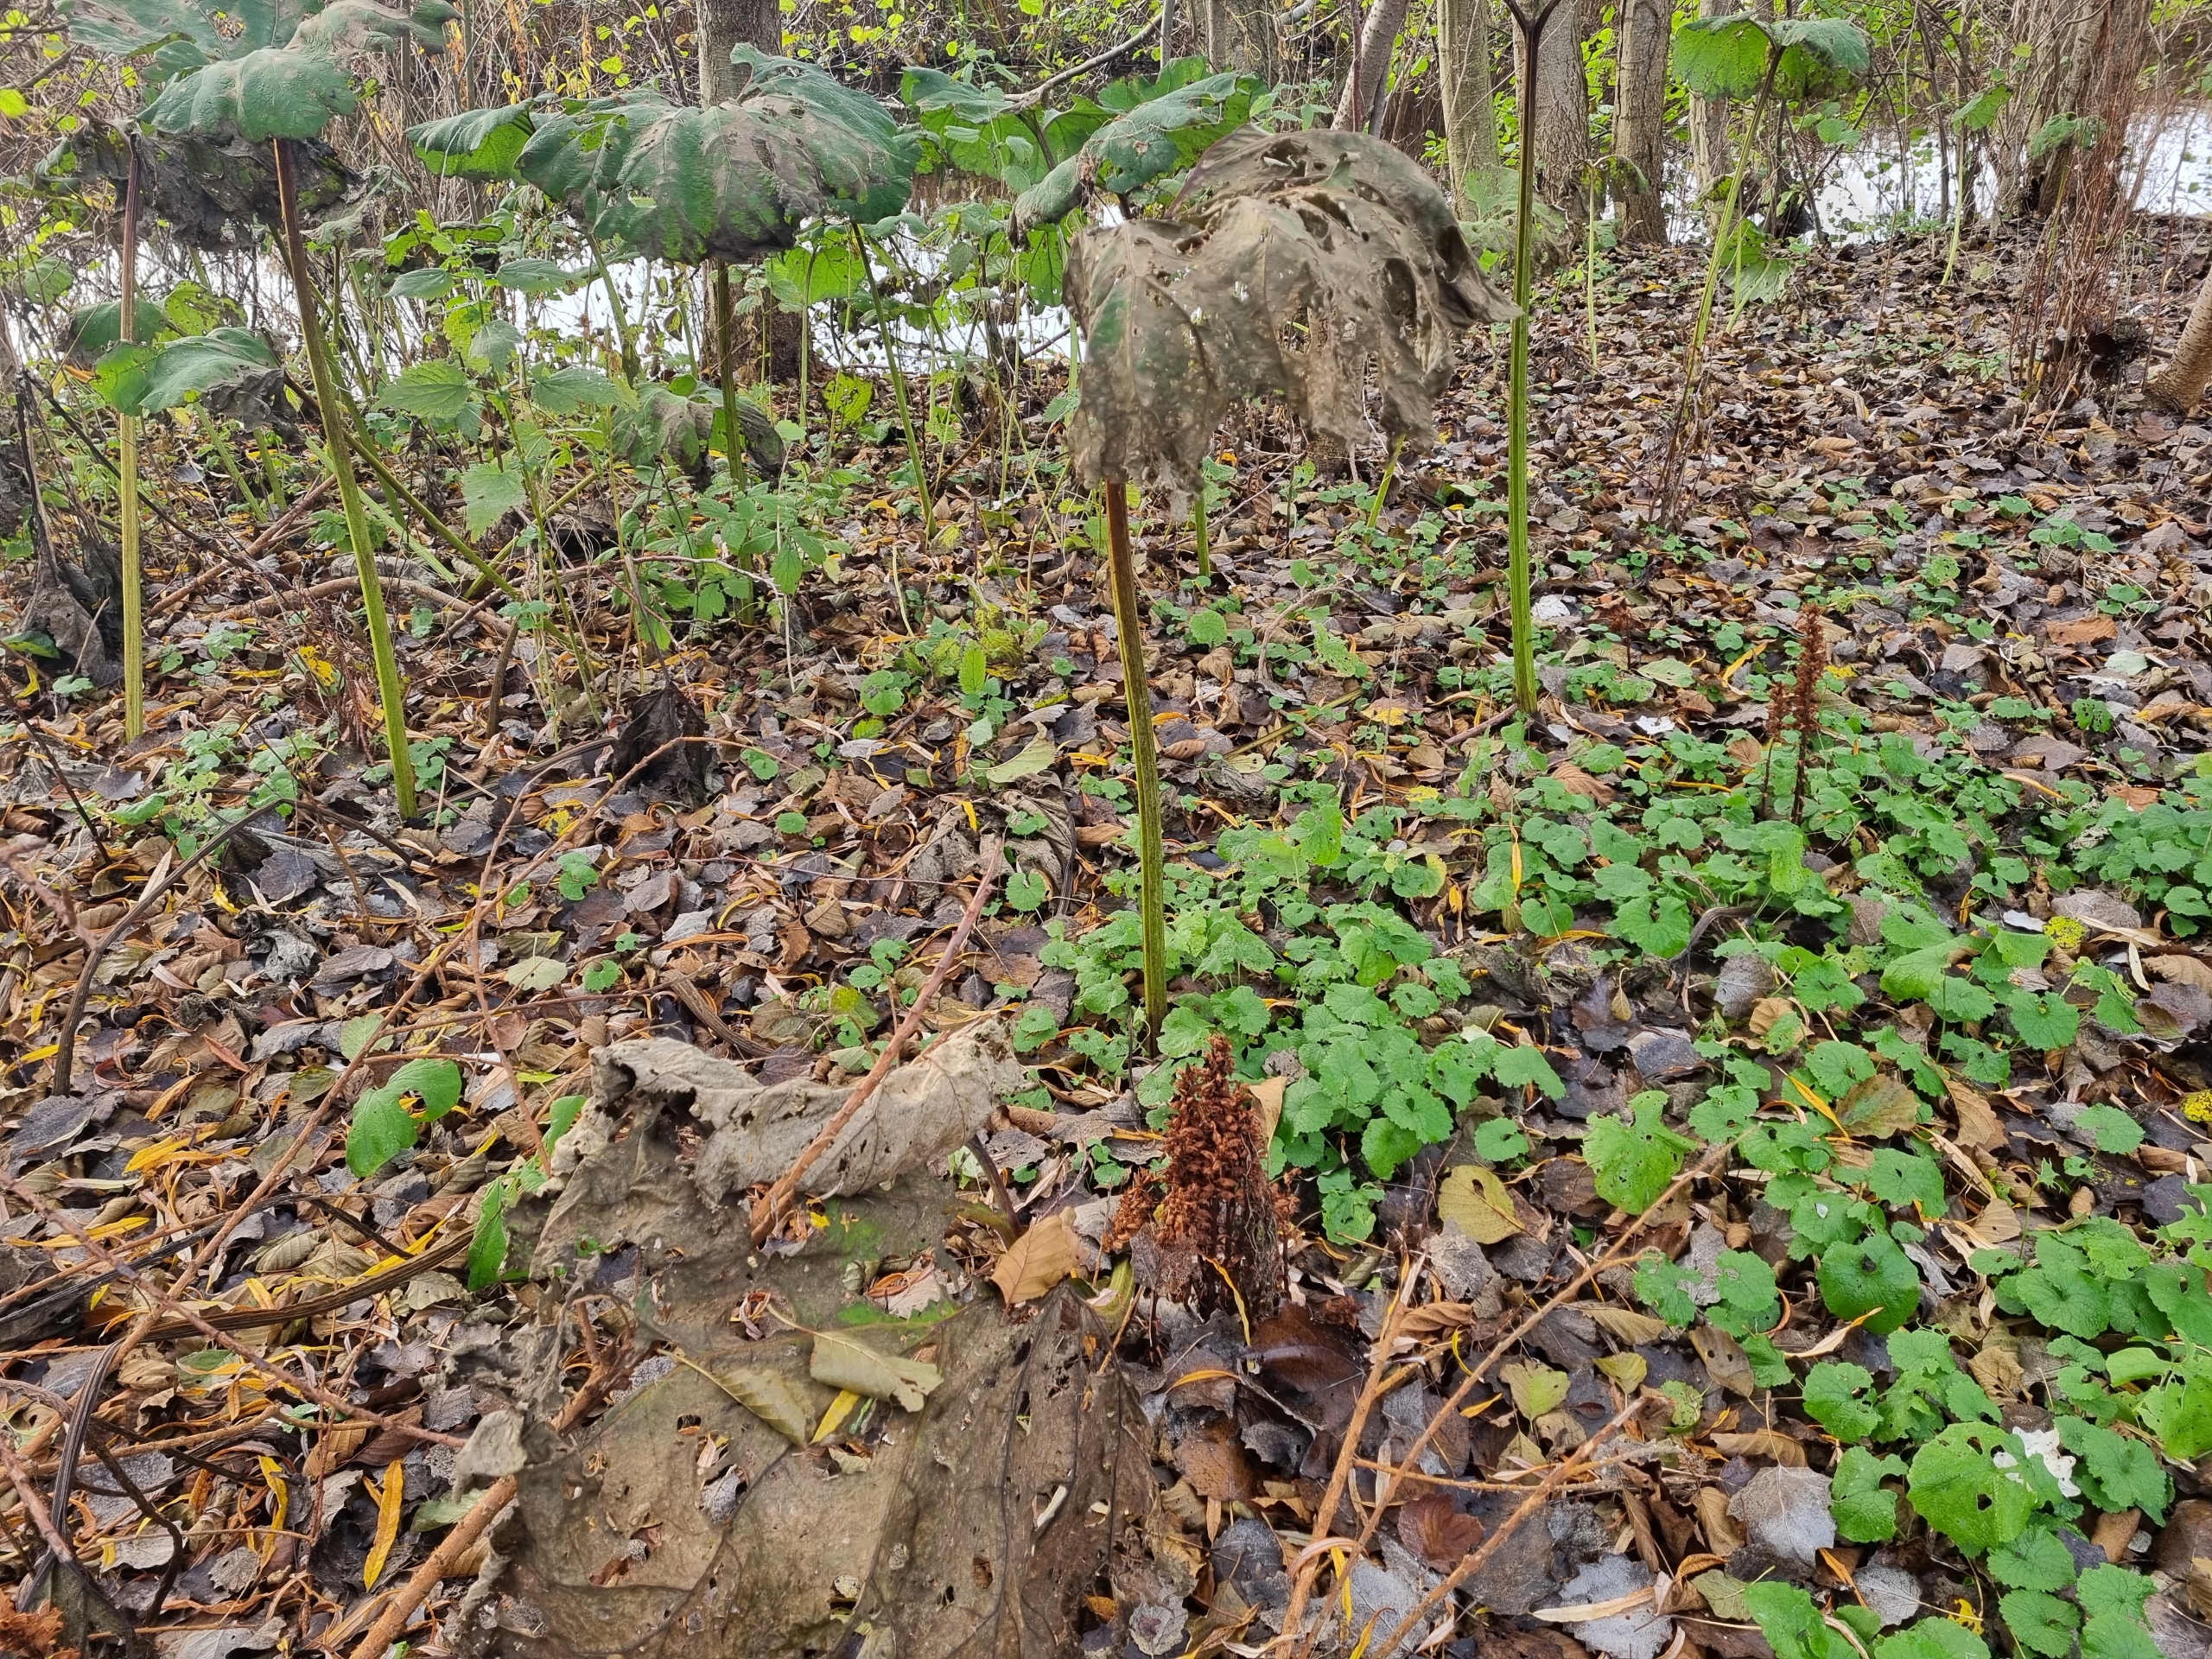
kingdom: Plantae
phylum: Tracheophyta
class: Magnoliopsida
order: Lamiales
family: Orobanchaceae
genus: Orobanche
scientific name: Orobanche flava
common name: Gul gyvelkvæler
